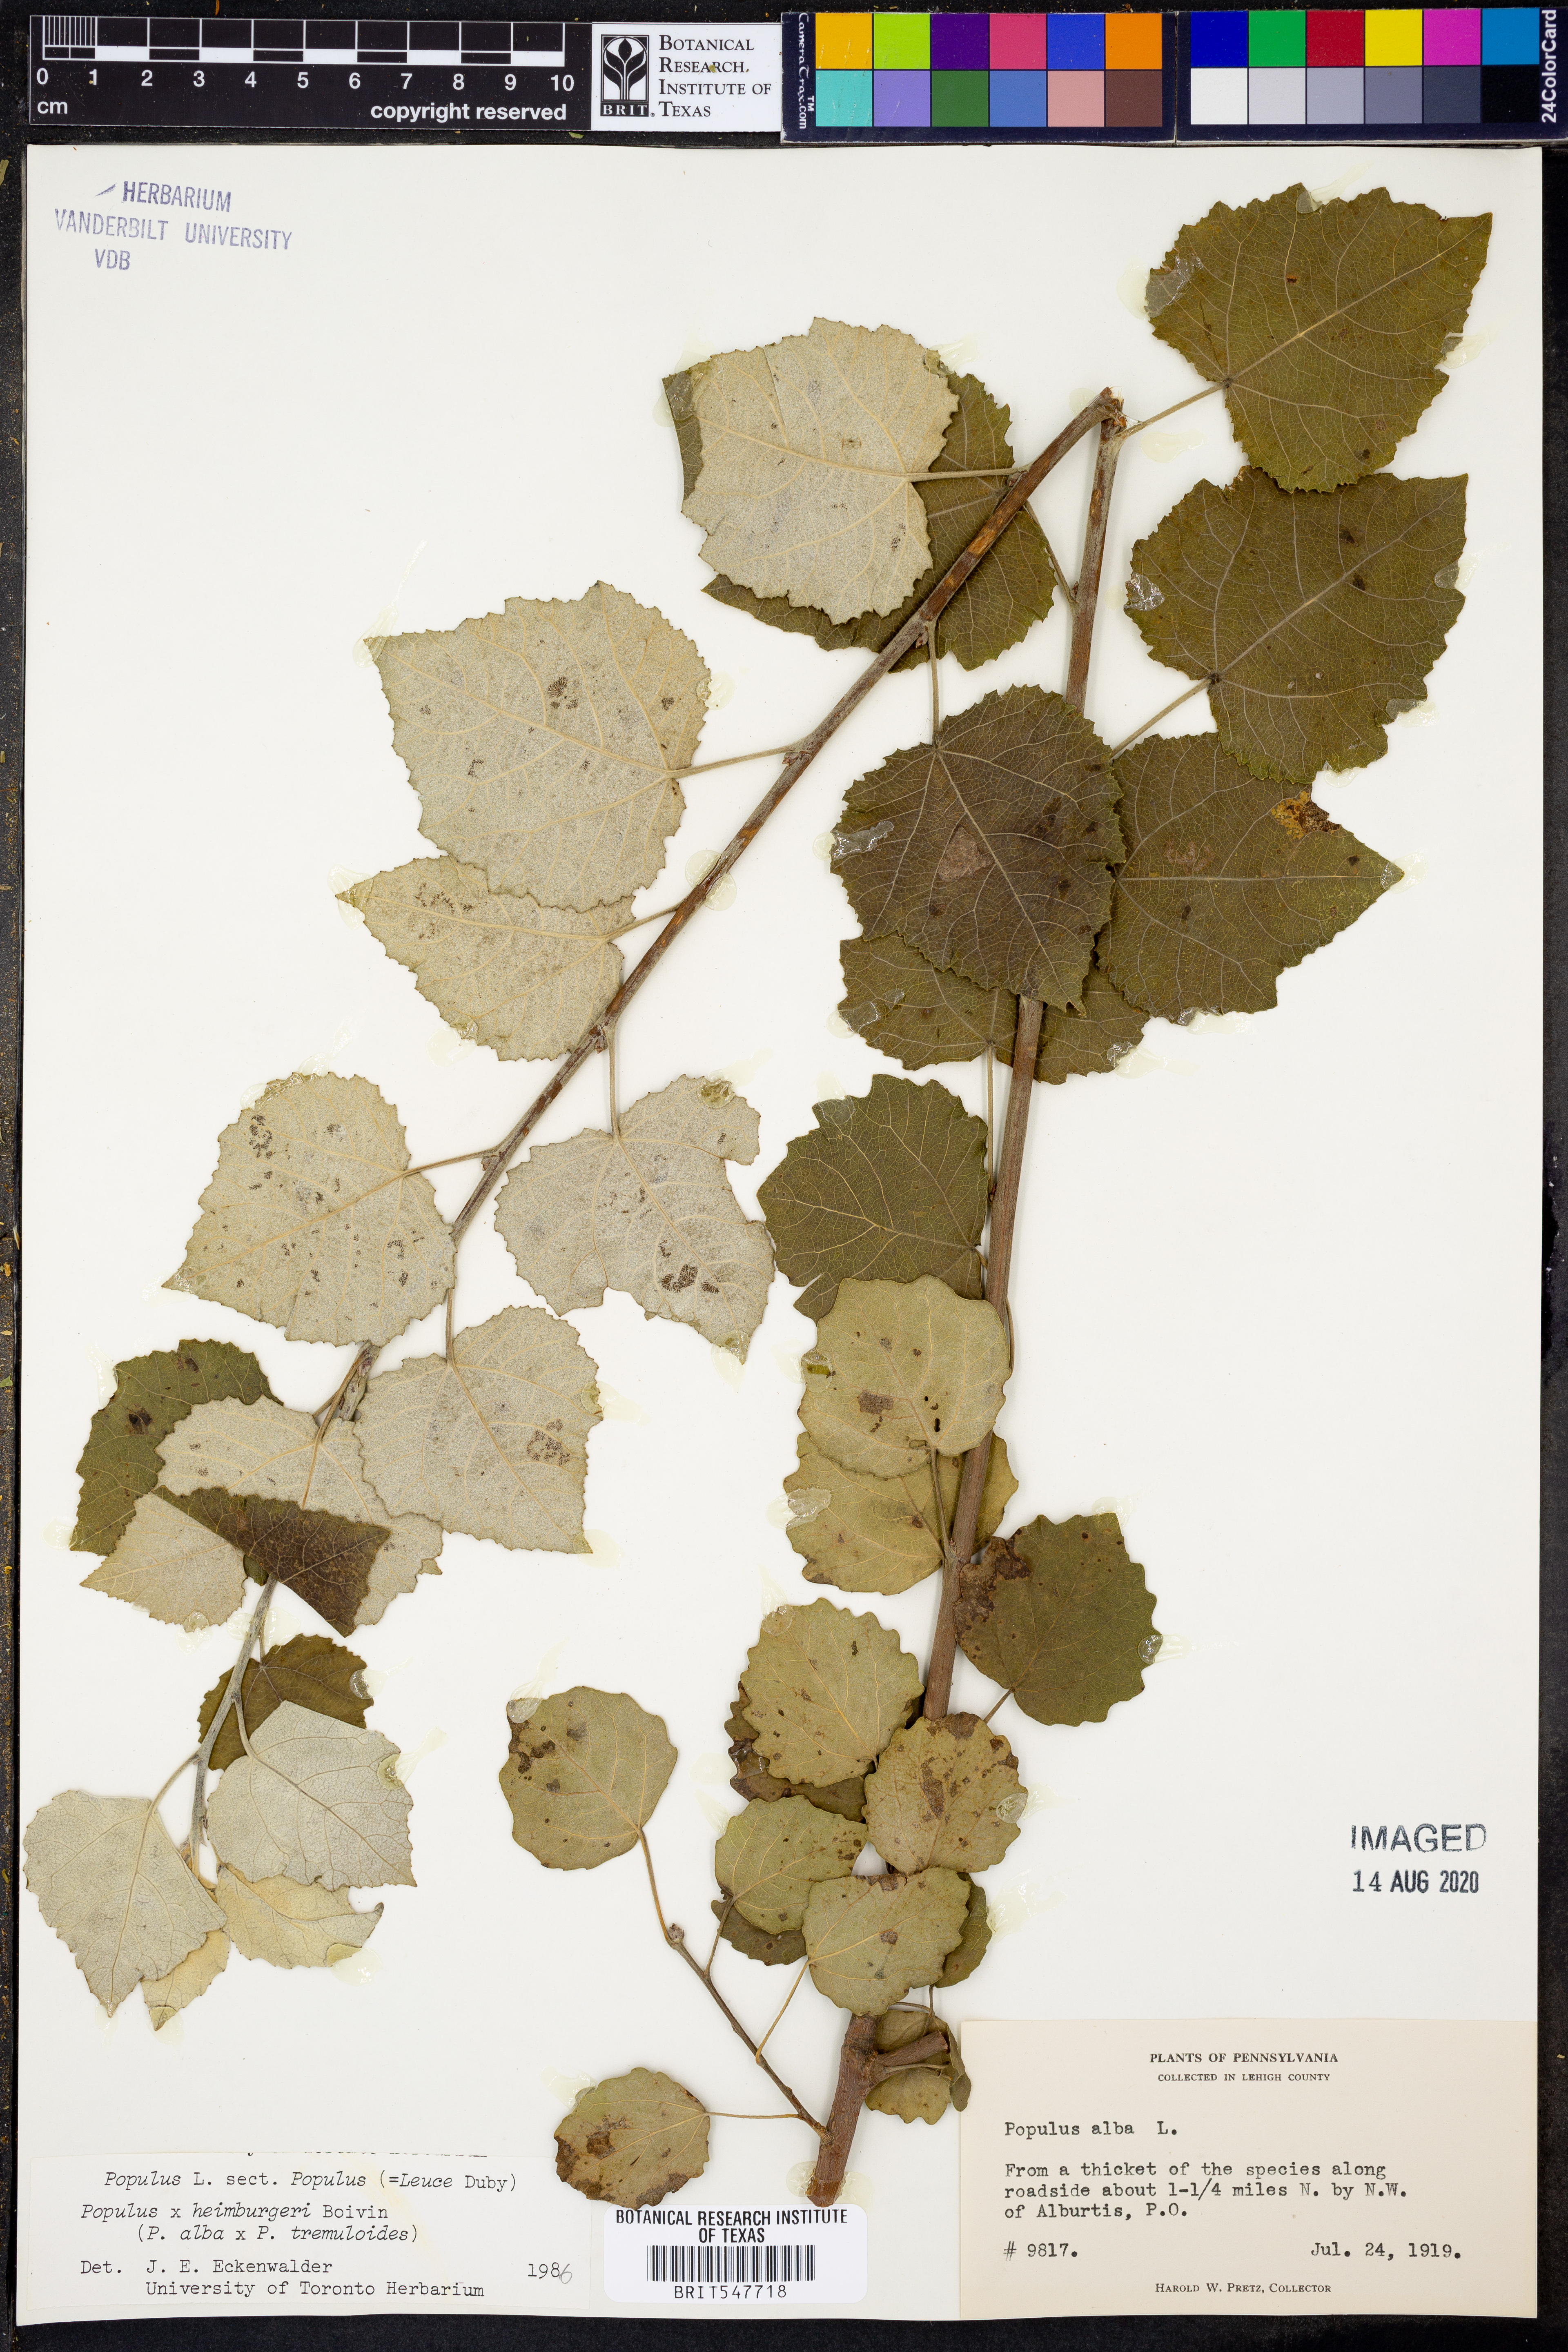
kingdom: Plantae
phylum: Tracheophyta
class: Magnoliopsida
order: Malpighiales
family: Salicaceae
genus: Populus
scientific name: Populus
